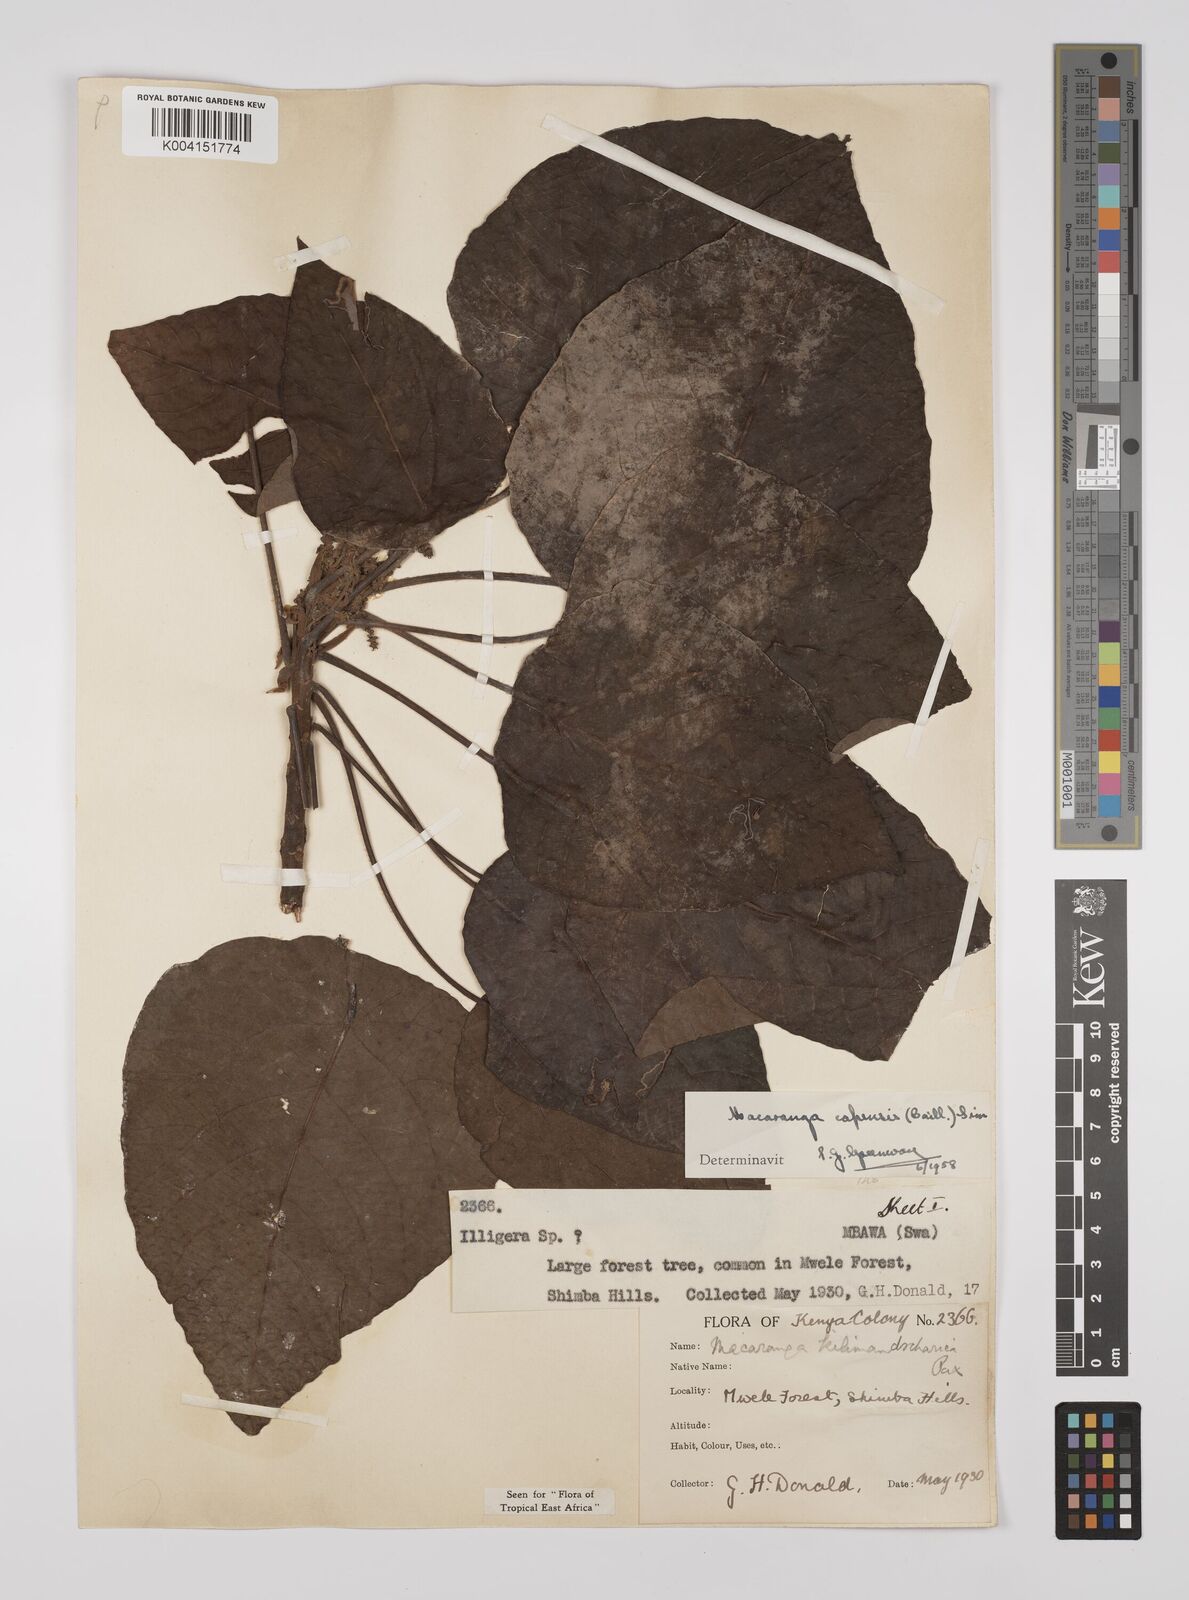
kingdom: Plantae
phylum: Tracheophyta
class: Magnoliopsida
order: Malpighiales
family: Euphorbiaceae
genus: Macaranga
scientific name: Macaranga capensis
